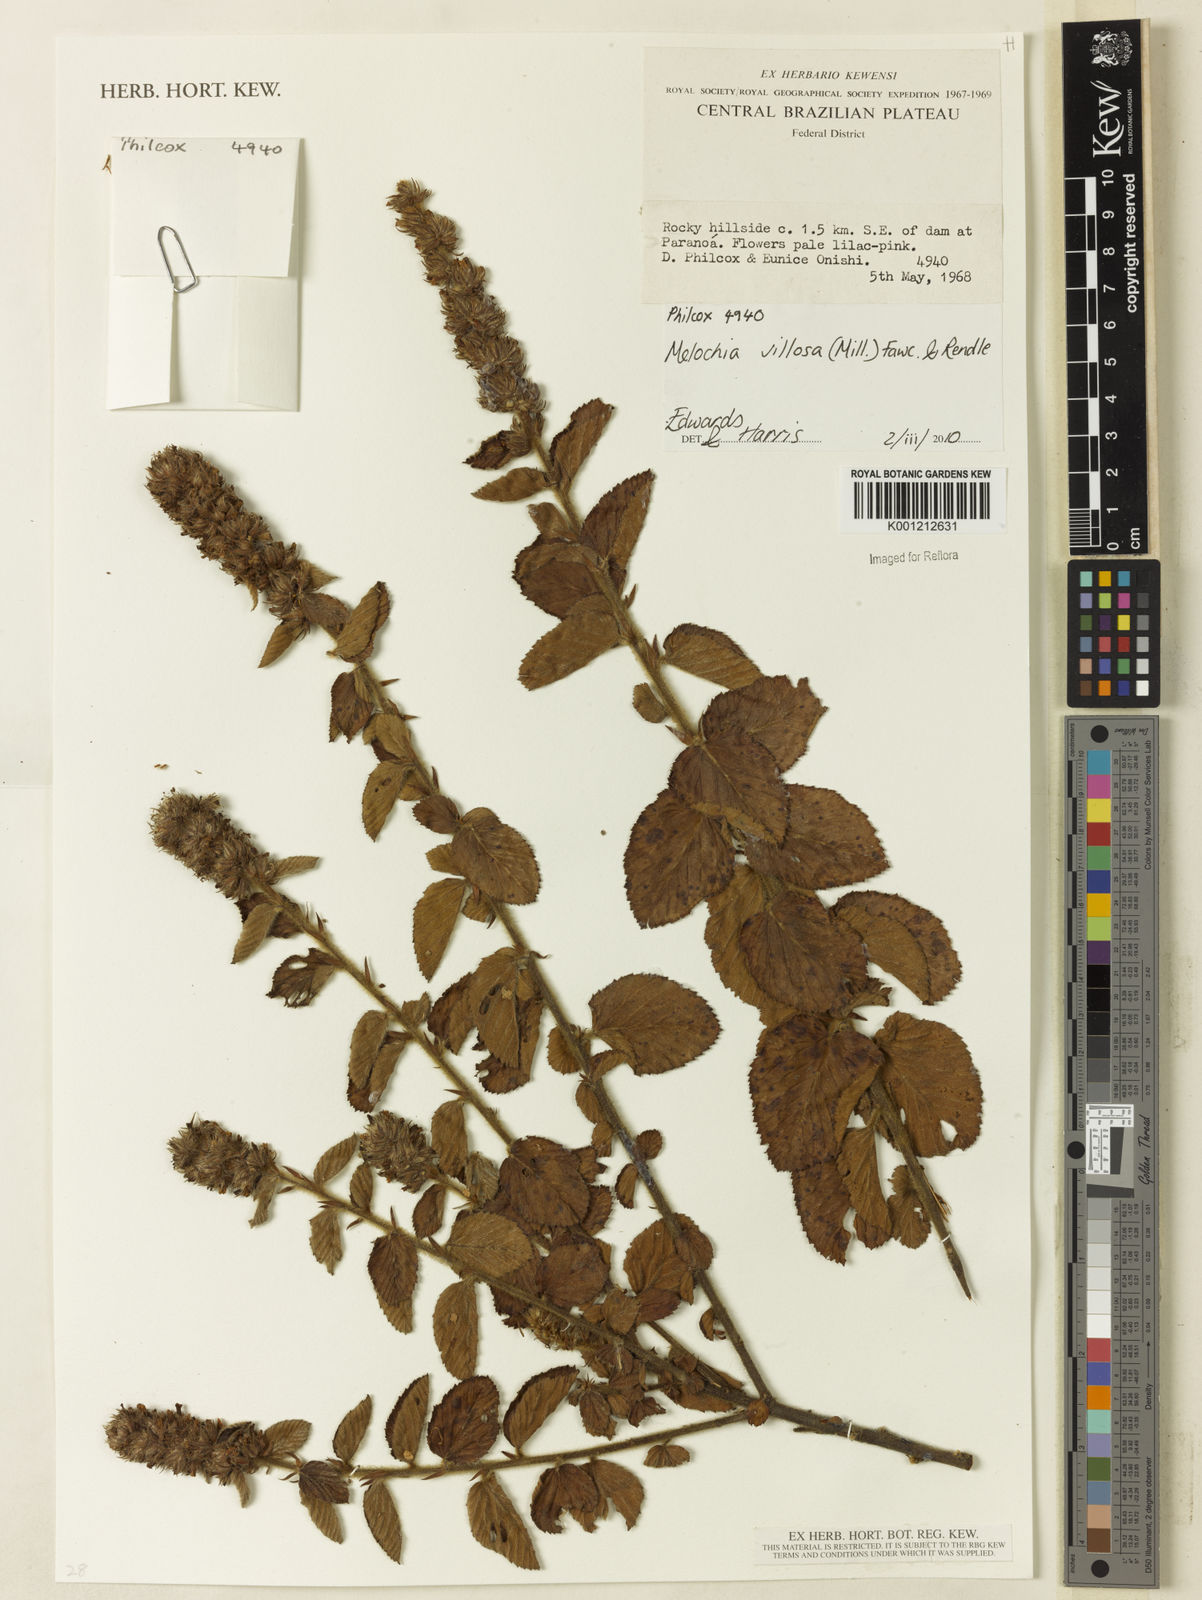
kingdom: Plantae
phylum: Tracheophyta
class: Magnoliopsida
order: Malvales
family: Malvaceae
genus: Melochia
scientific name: Melochia spicata
